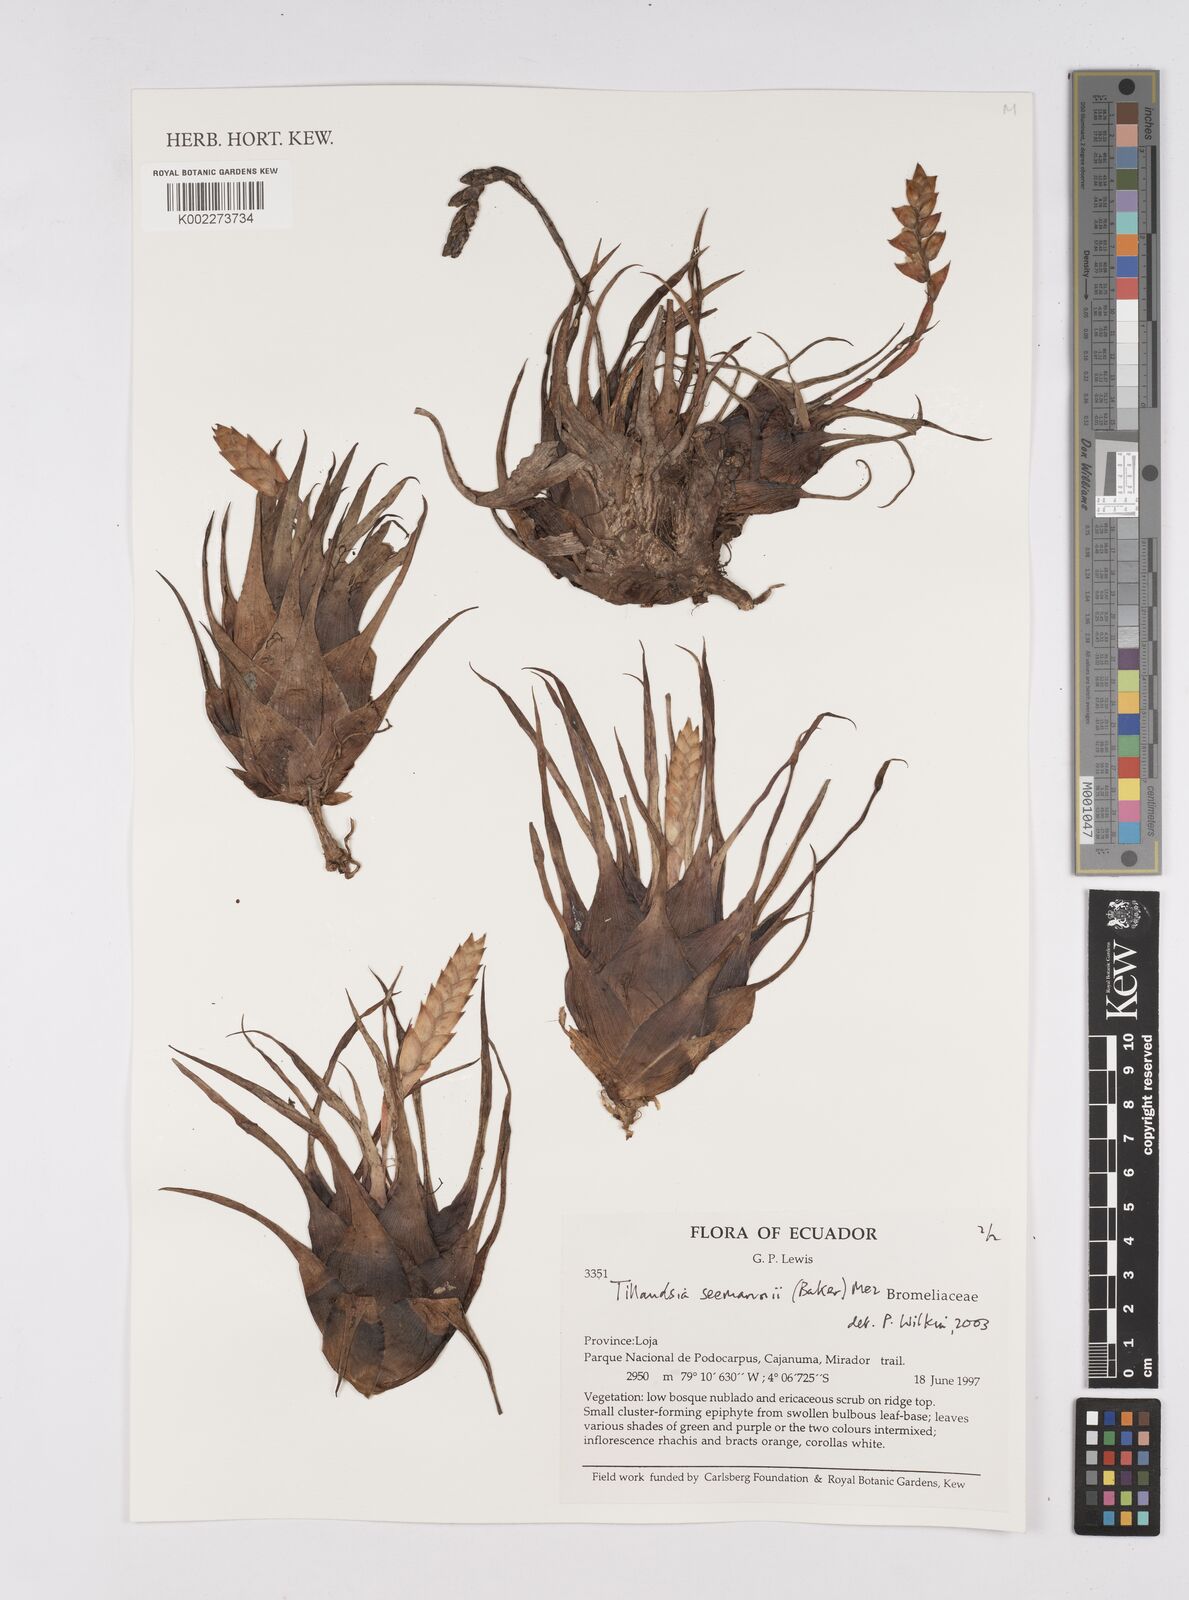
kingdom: Plantae
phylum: Tracheophyta
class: Liliopsida
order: Poales
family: Bromeliaceae
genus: Racinaea
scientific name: Racinaea seemannii
